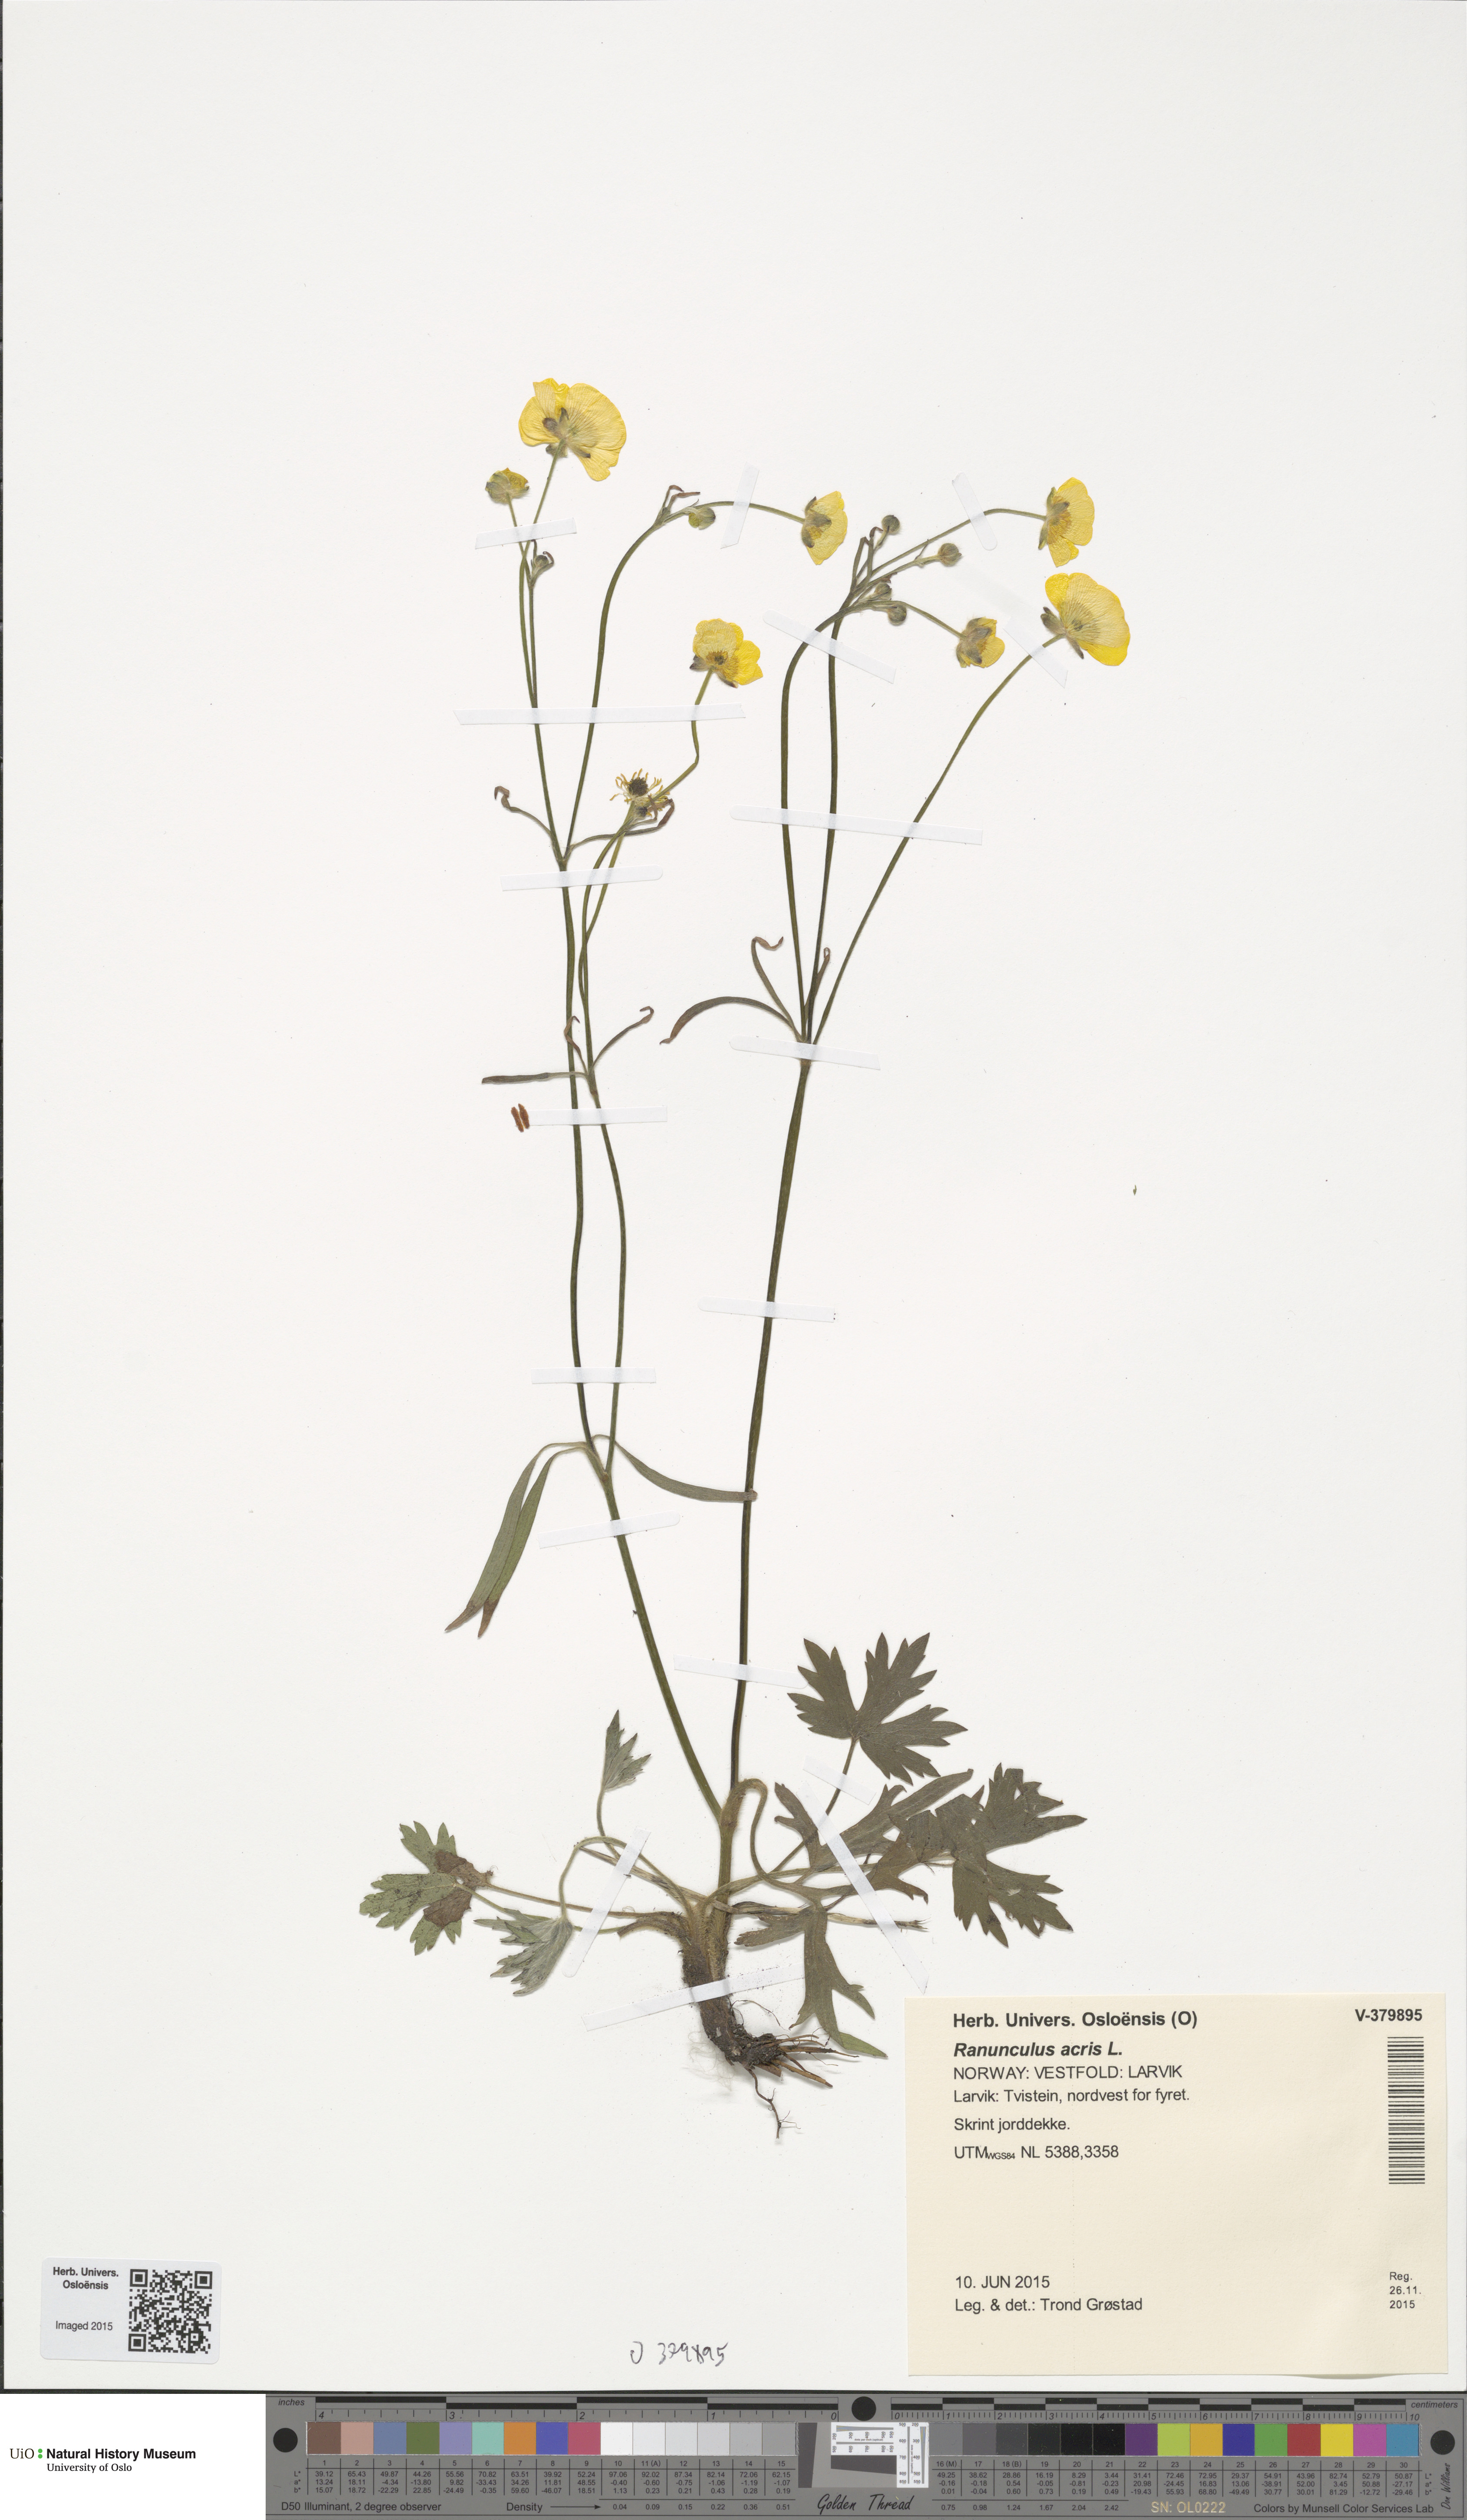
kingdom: Plantae
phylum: Tracheophyta
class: Magnoliopsida
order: Ranunculales
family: Ranunculaceae
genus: Ranunculus
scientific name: Ranunculus acris
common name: Meadow buttercup
